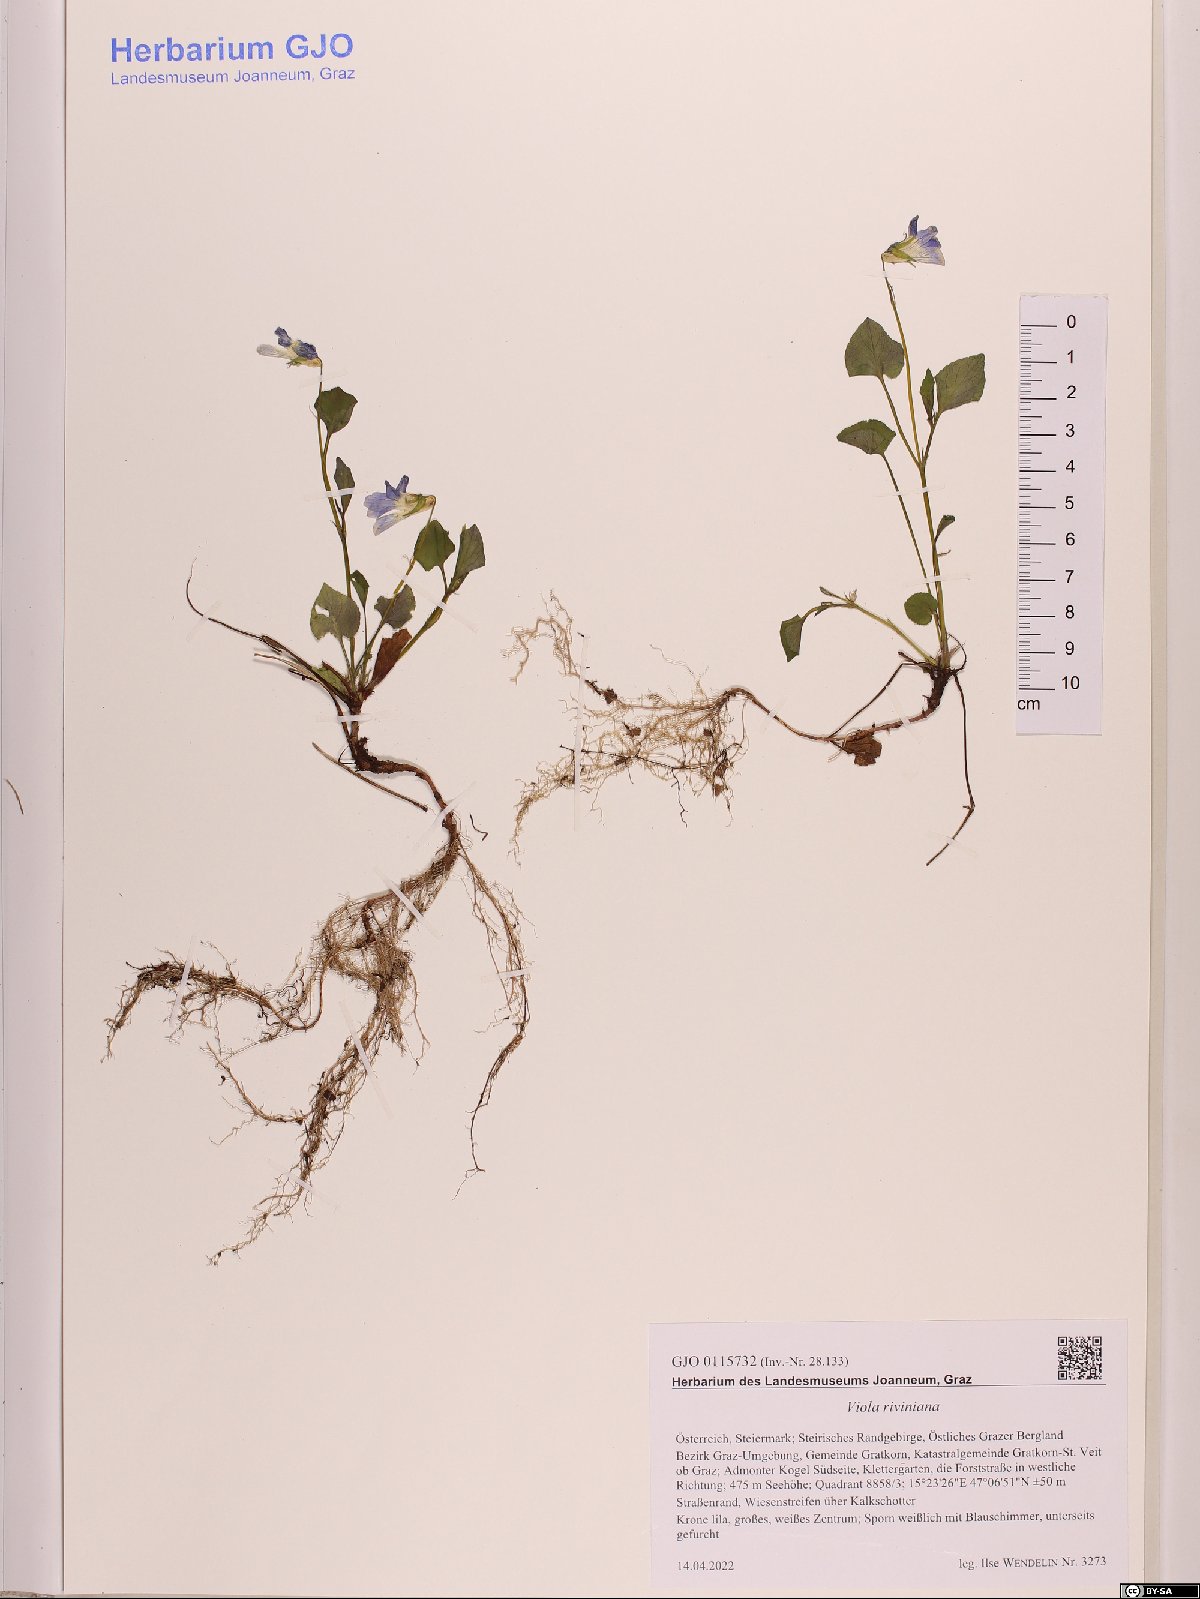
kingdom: Plantae
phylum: Tracheophyta
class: Magnoliopsida
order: Malpighiales
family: Violaceae
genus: Viola
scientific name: Viola riviniana
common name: Common dog-violet
